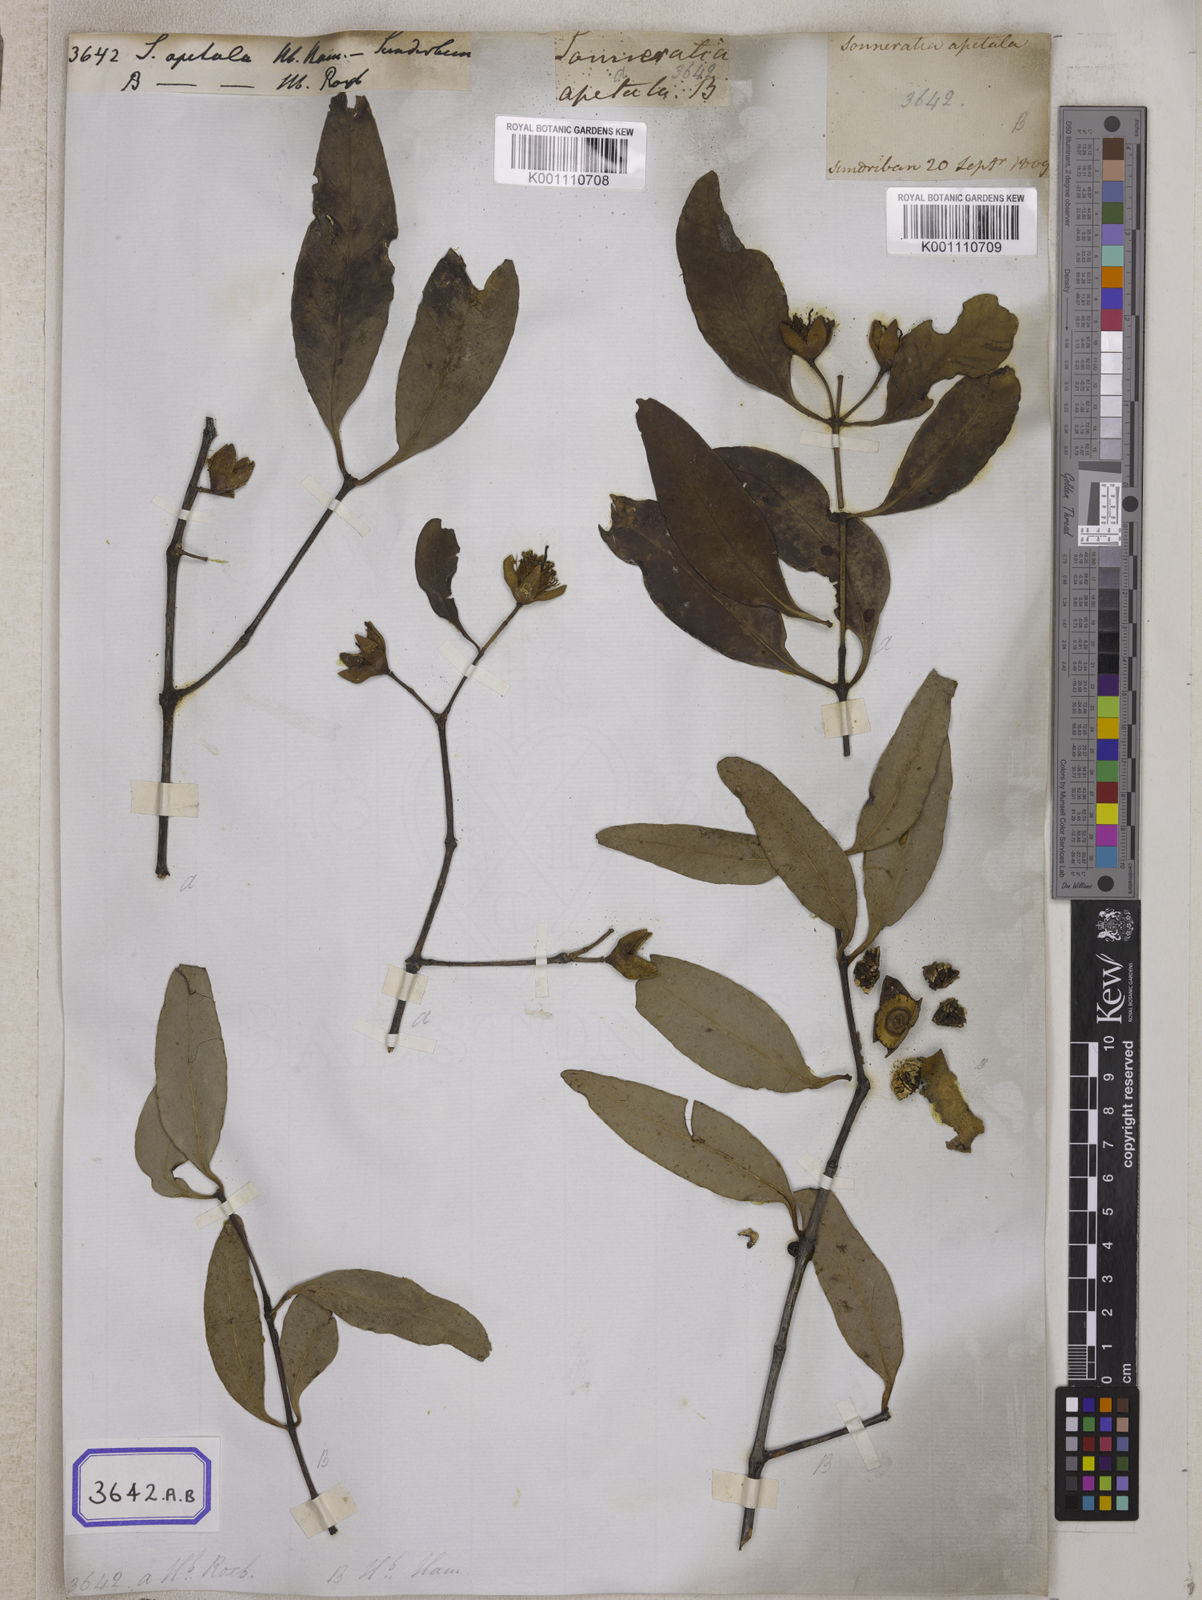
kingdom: Plantae
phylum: Tracheophyta
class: Magnoliopsida
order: Myrtales
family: Lythraceae
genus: Sonneratia
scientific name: Sonneratia
